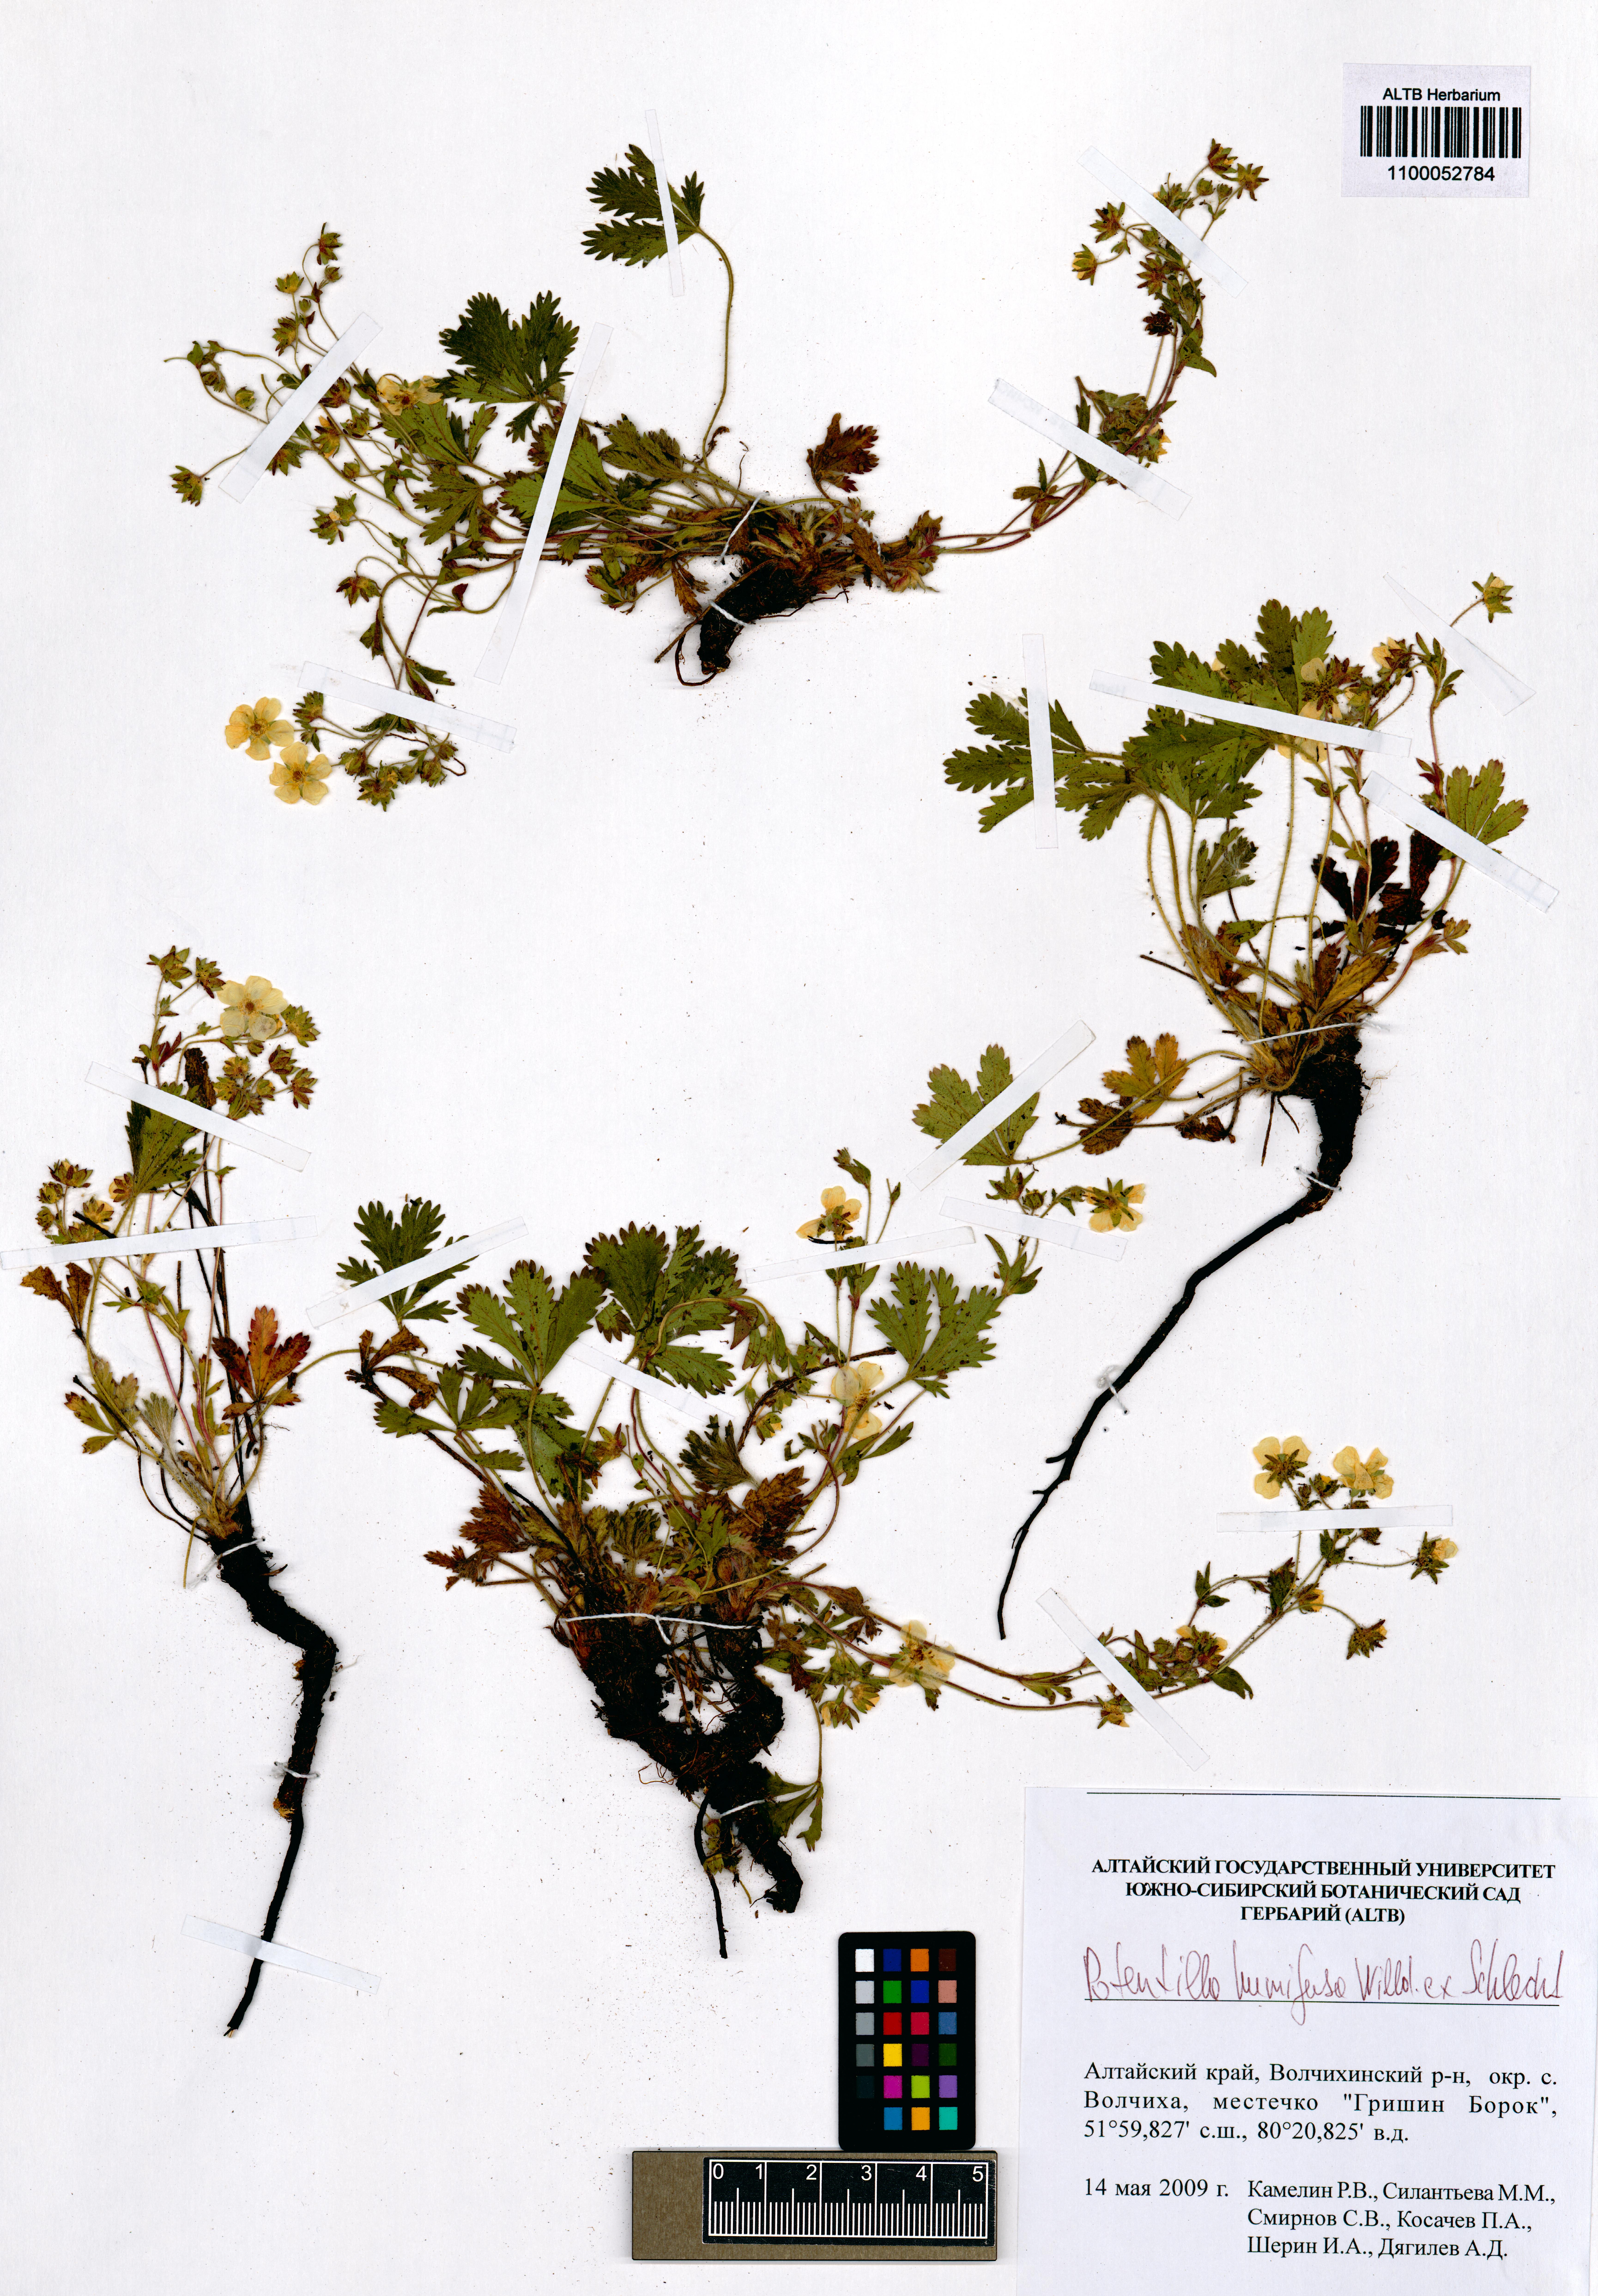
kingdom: Plantae
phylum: Tracheophyta
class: Magnoliopsida
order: Rosales
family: Rosaceae
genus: Potentilla
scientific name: Potentilla humifusa
